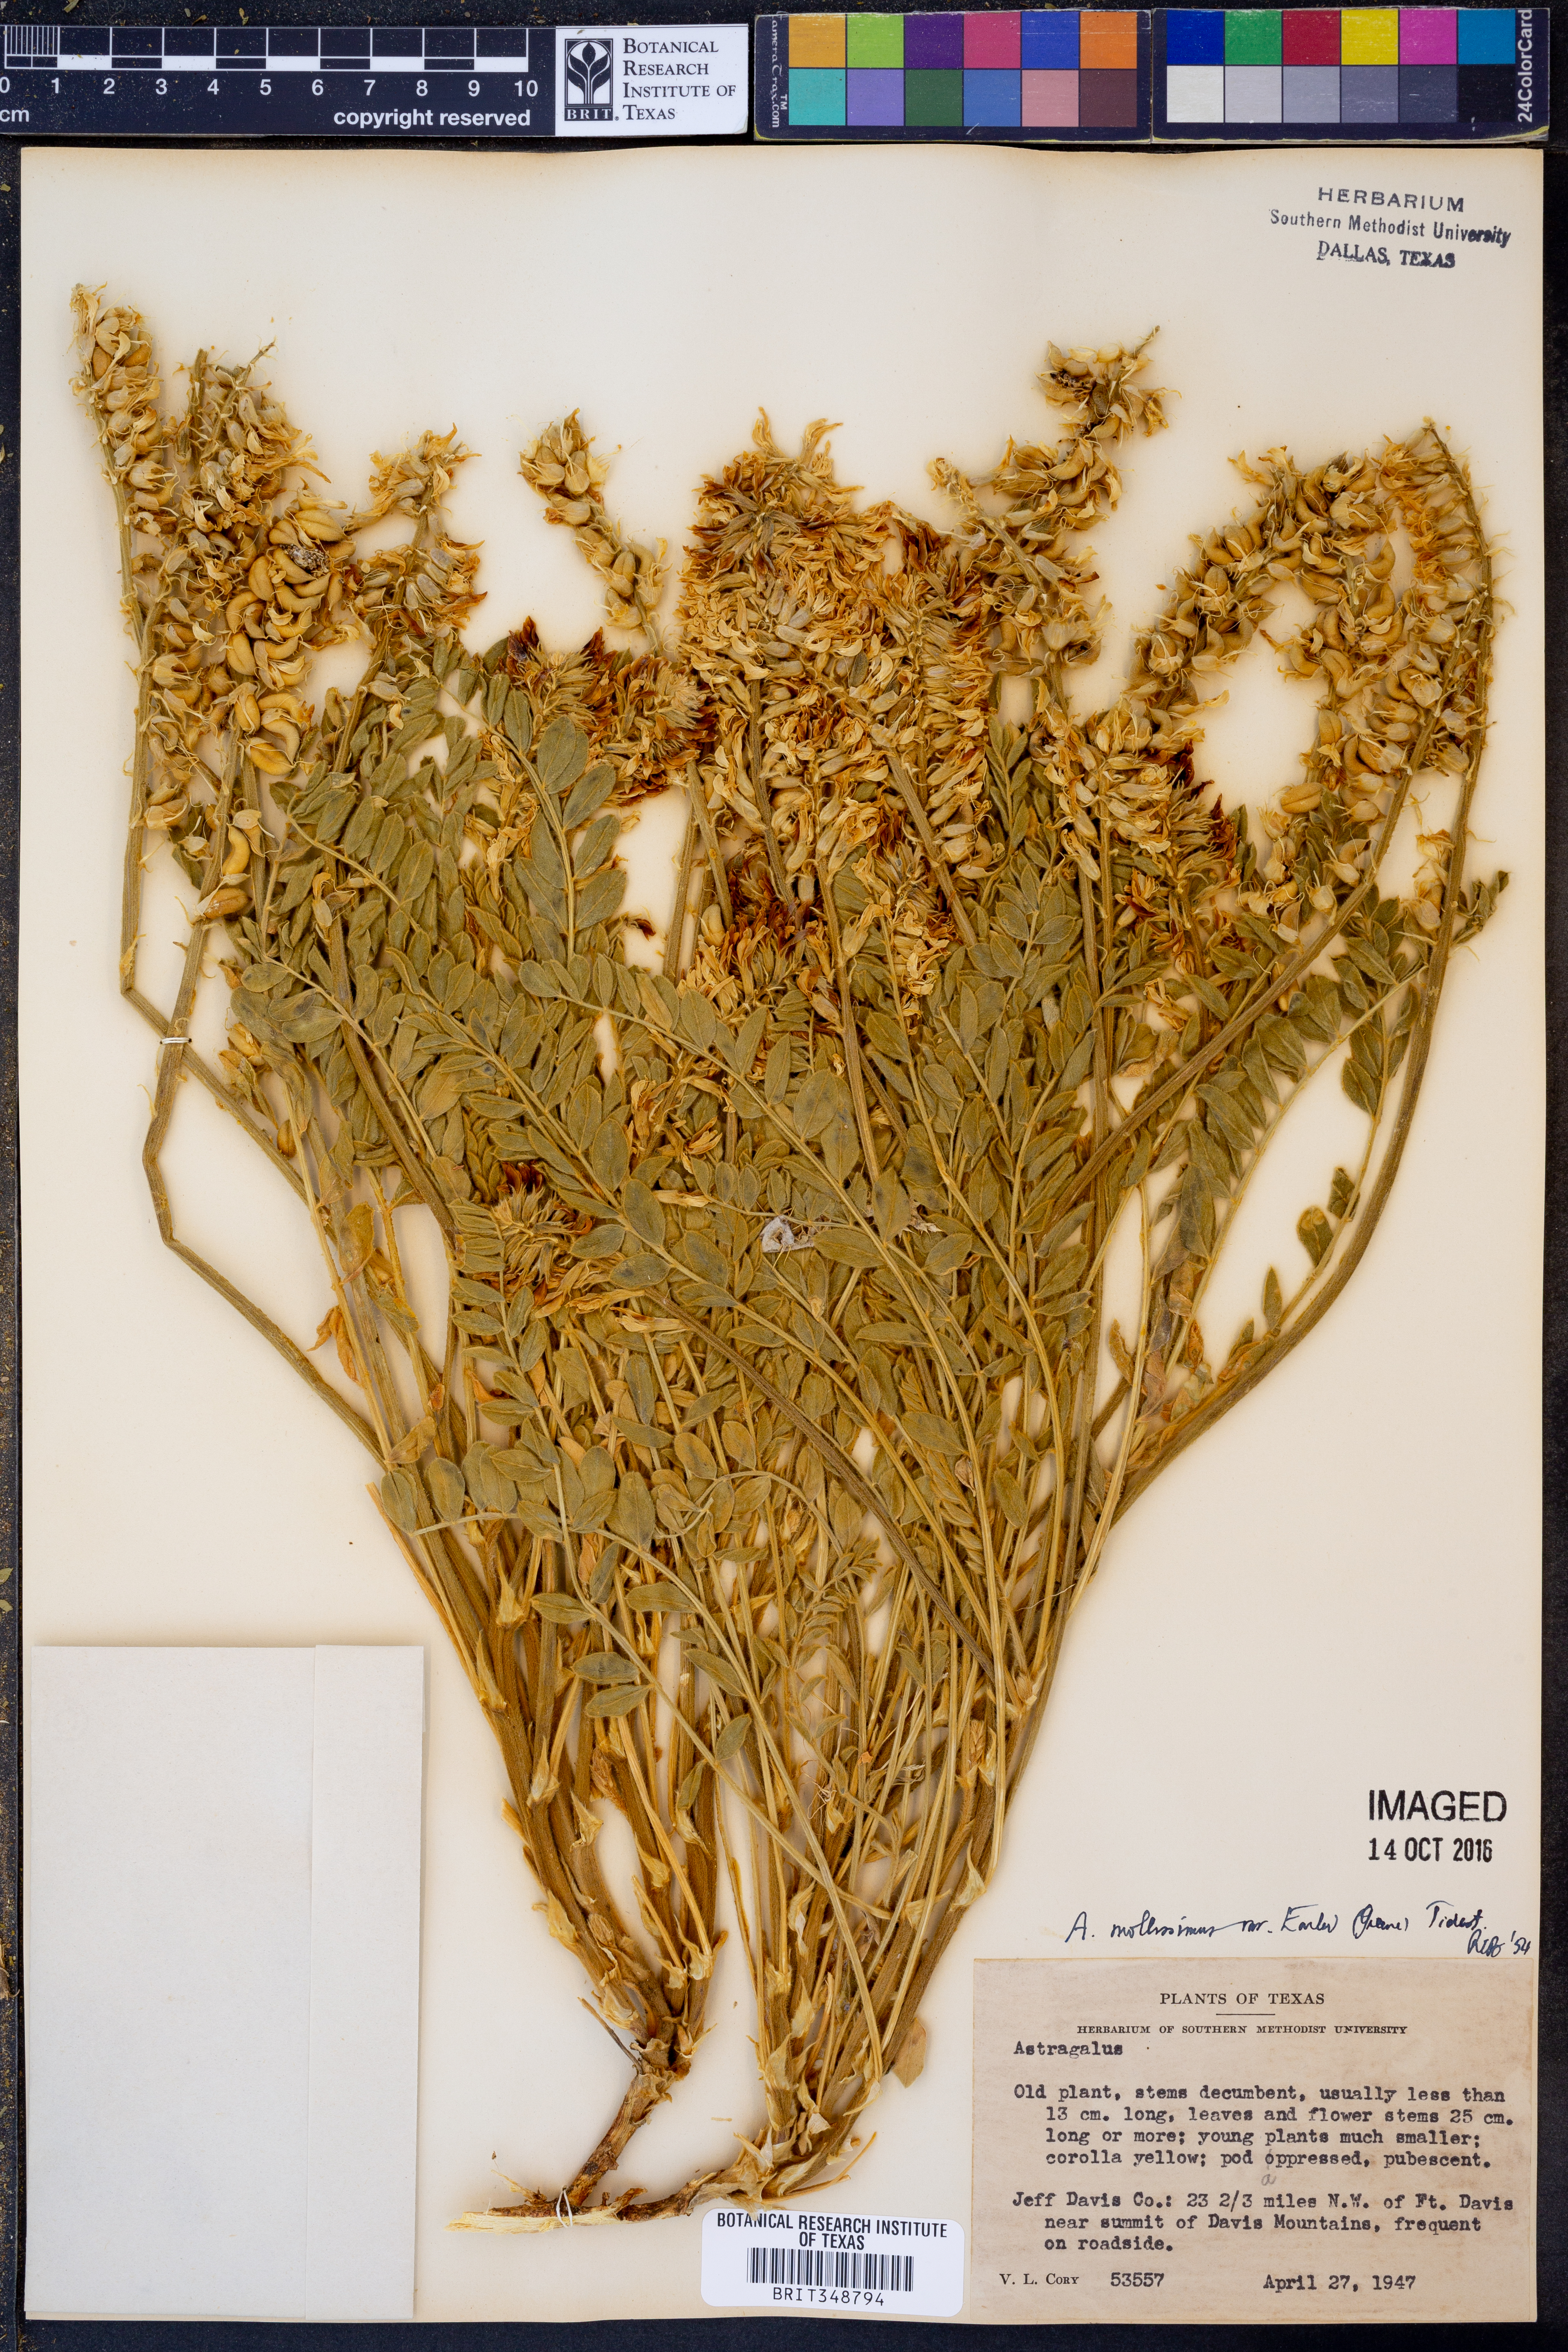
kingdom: Plantae
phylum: Tracheophyta
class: Magnoliopsida
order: Fabales
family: Fabaceae
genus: Astragalus
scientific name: Astragalus mollissimus
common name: Woolly locoweed
